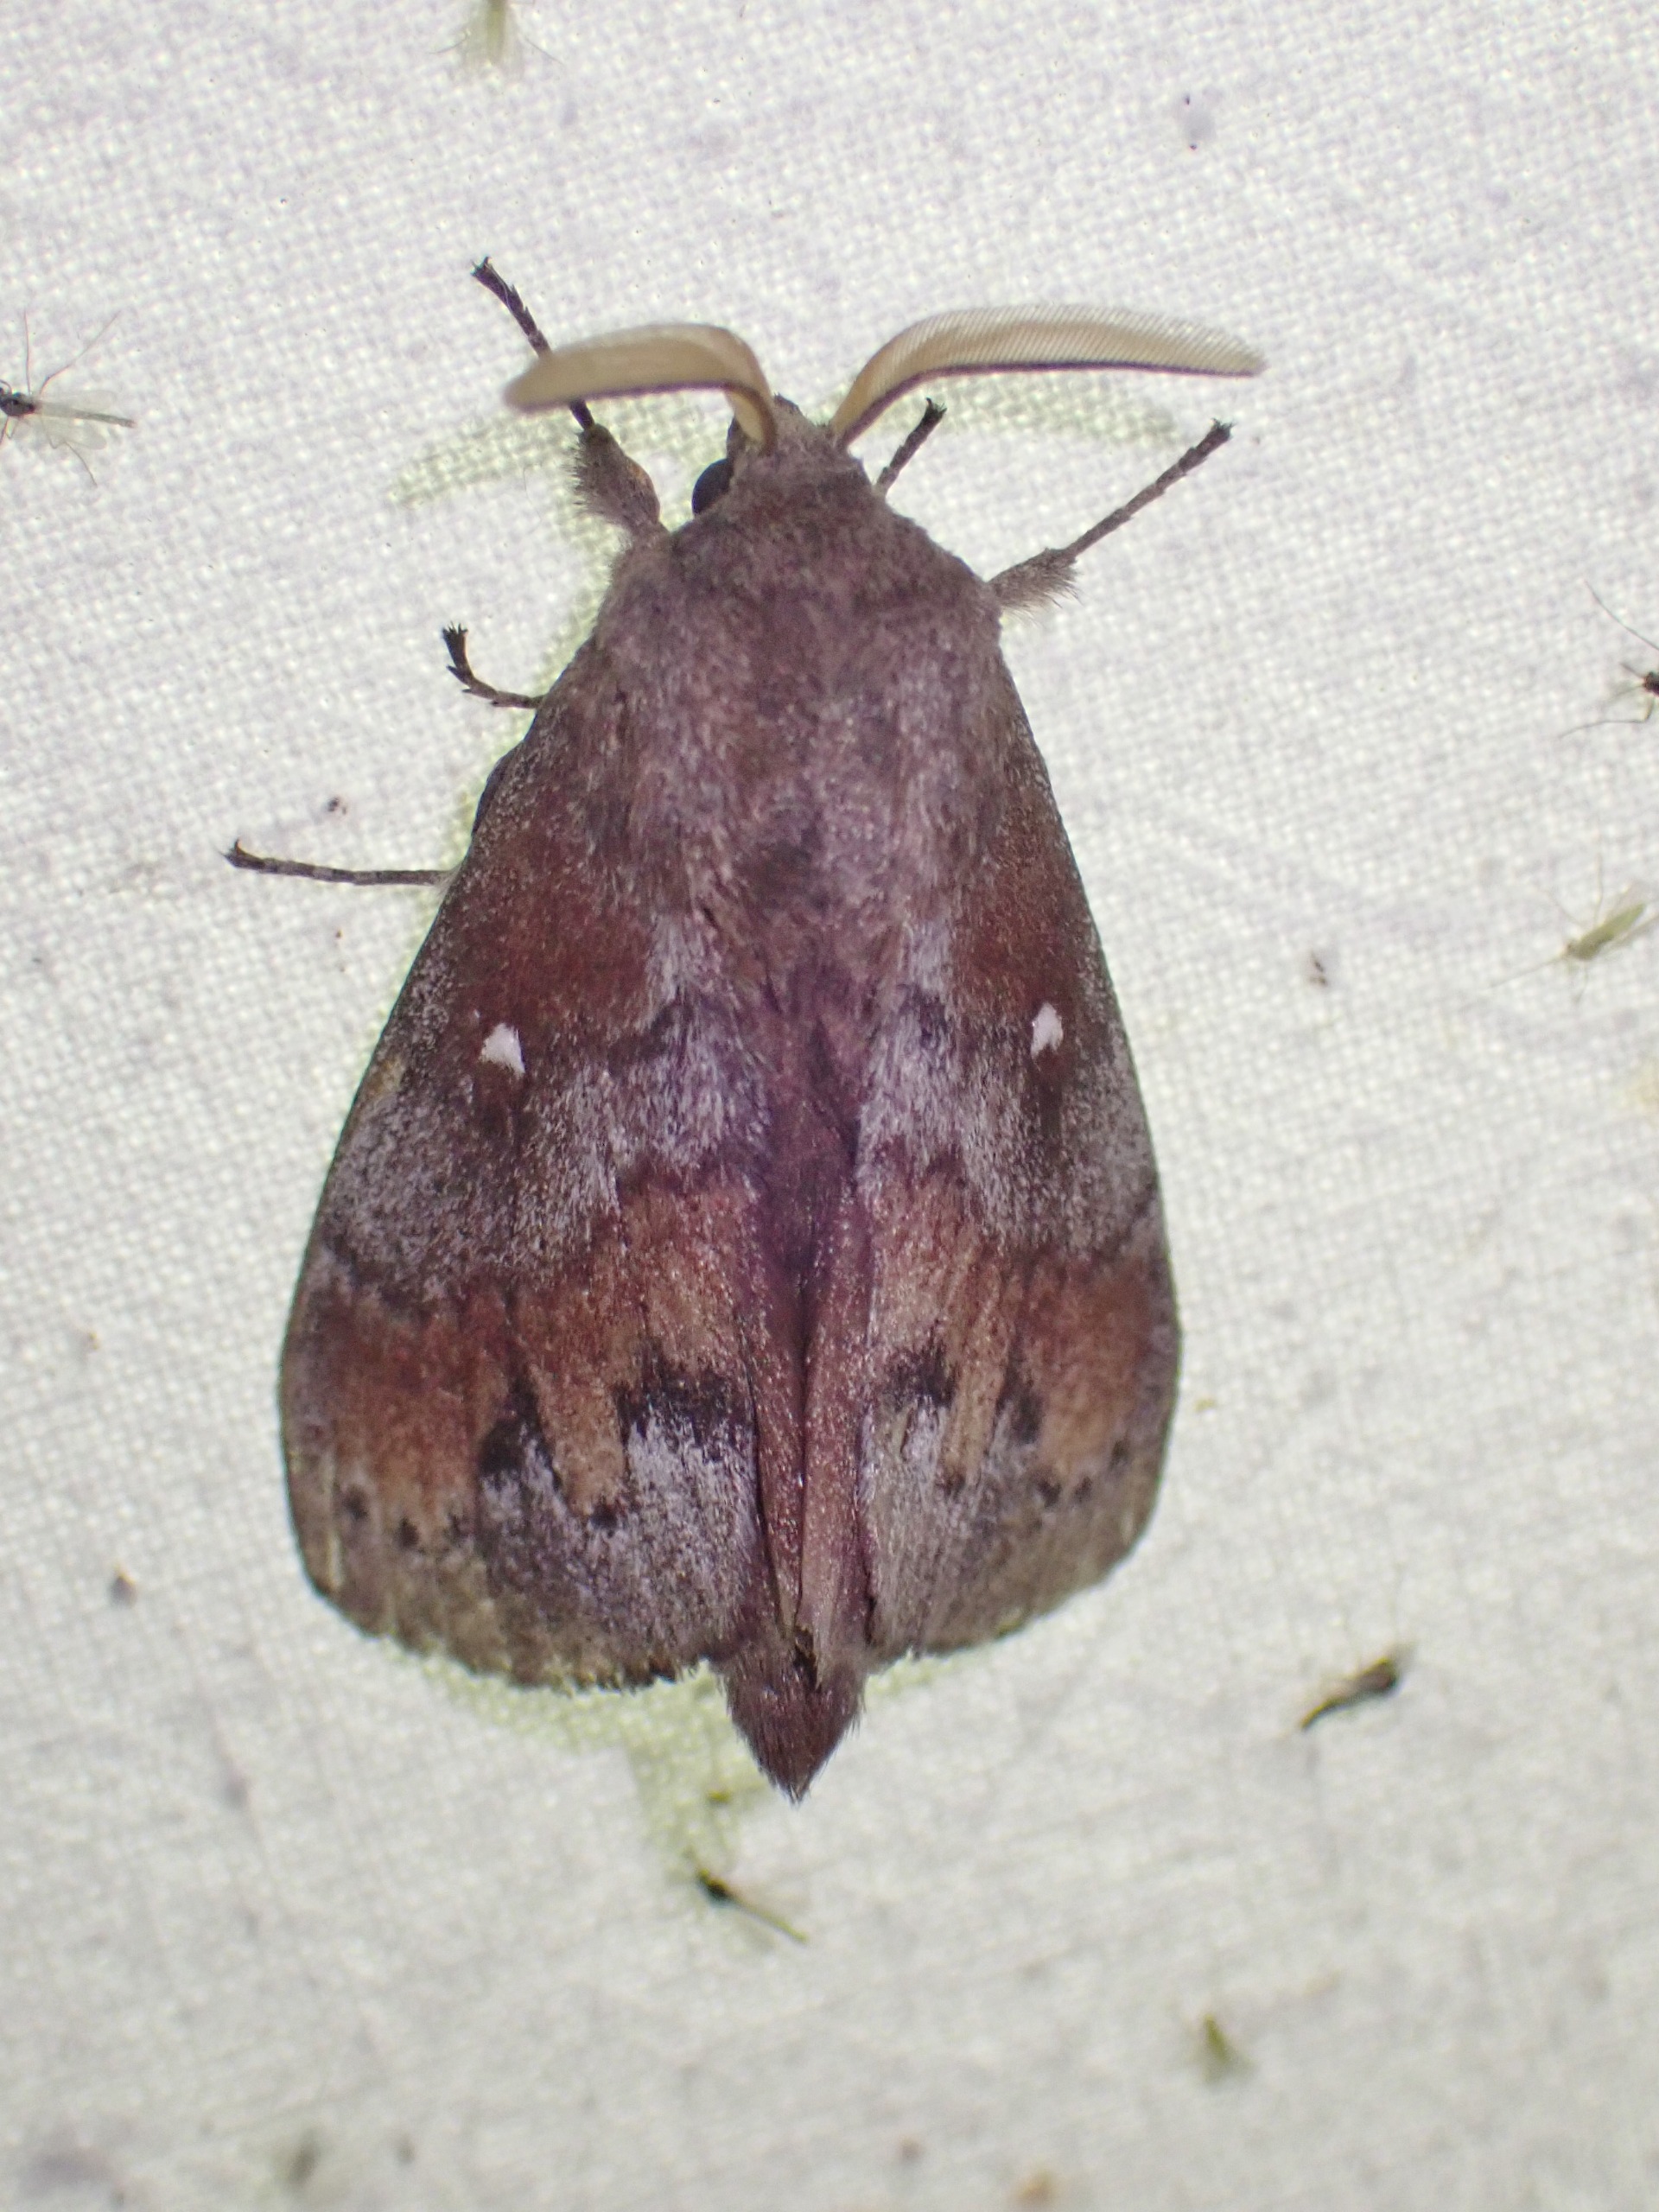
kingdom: Animalia
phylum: Arthropoda
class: Insecta
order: Lepidoptera
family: Lasiocampidae
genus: Dendrolimus
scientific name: Dendrolimus pini
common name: Fyrrespinder
